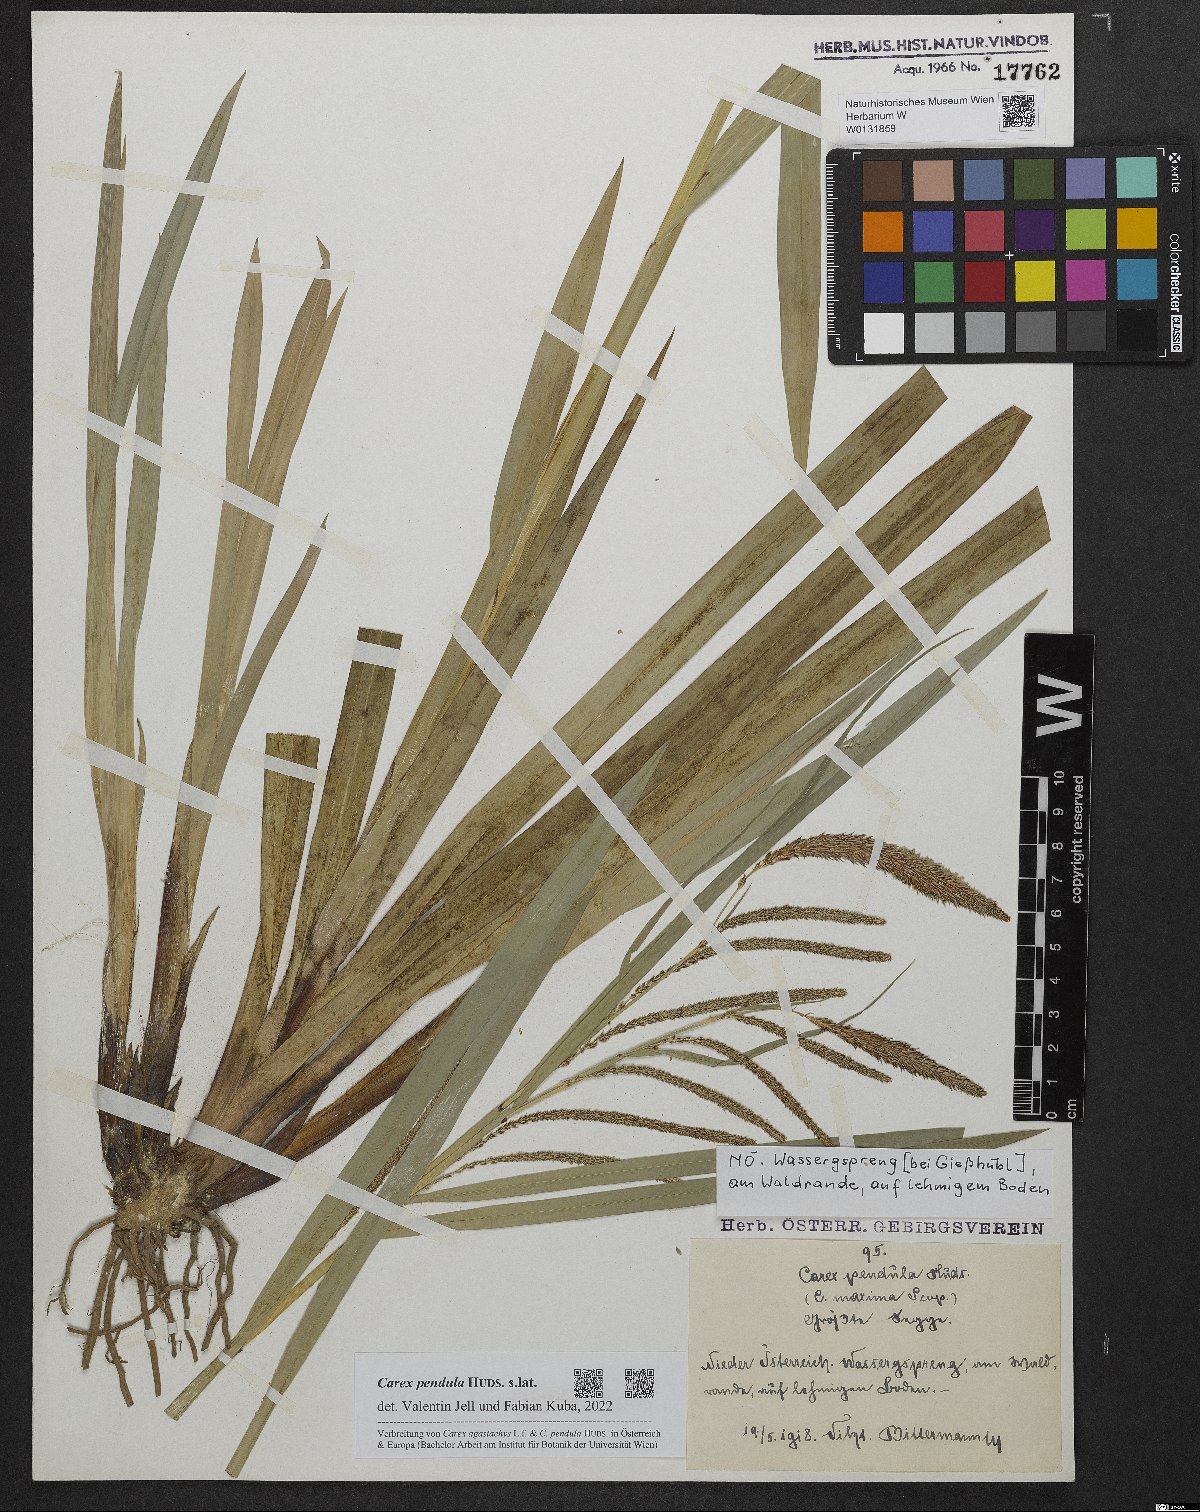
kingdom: Plantae
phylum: Tracheophyta
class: Liliopsida
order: Poales
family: Cyperaceae
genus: Carex
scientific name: Carex pendula
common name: Pendulous sedge
